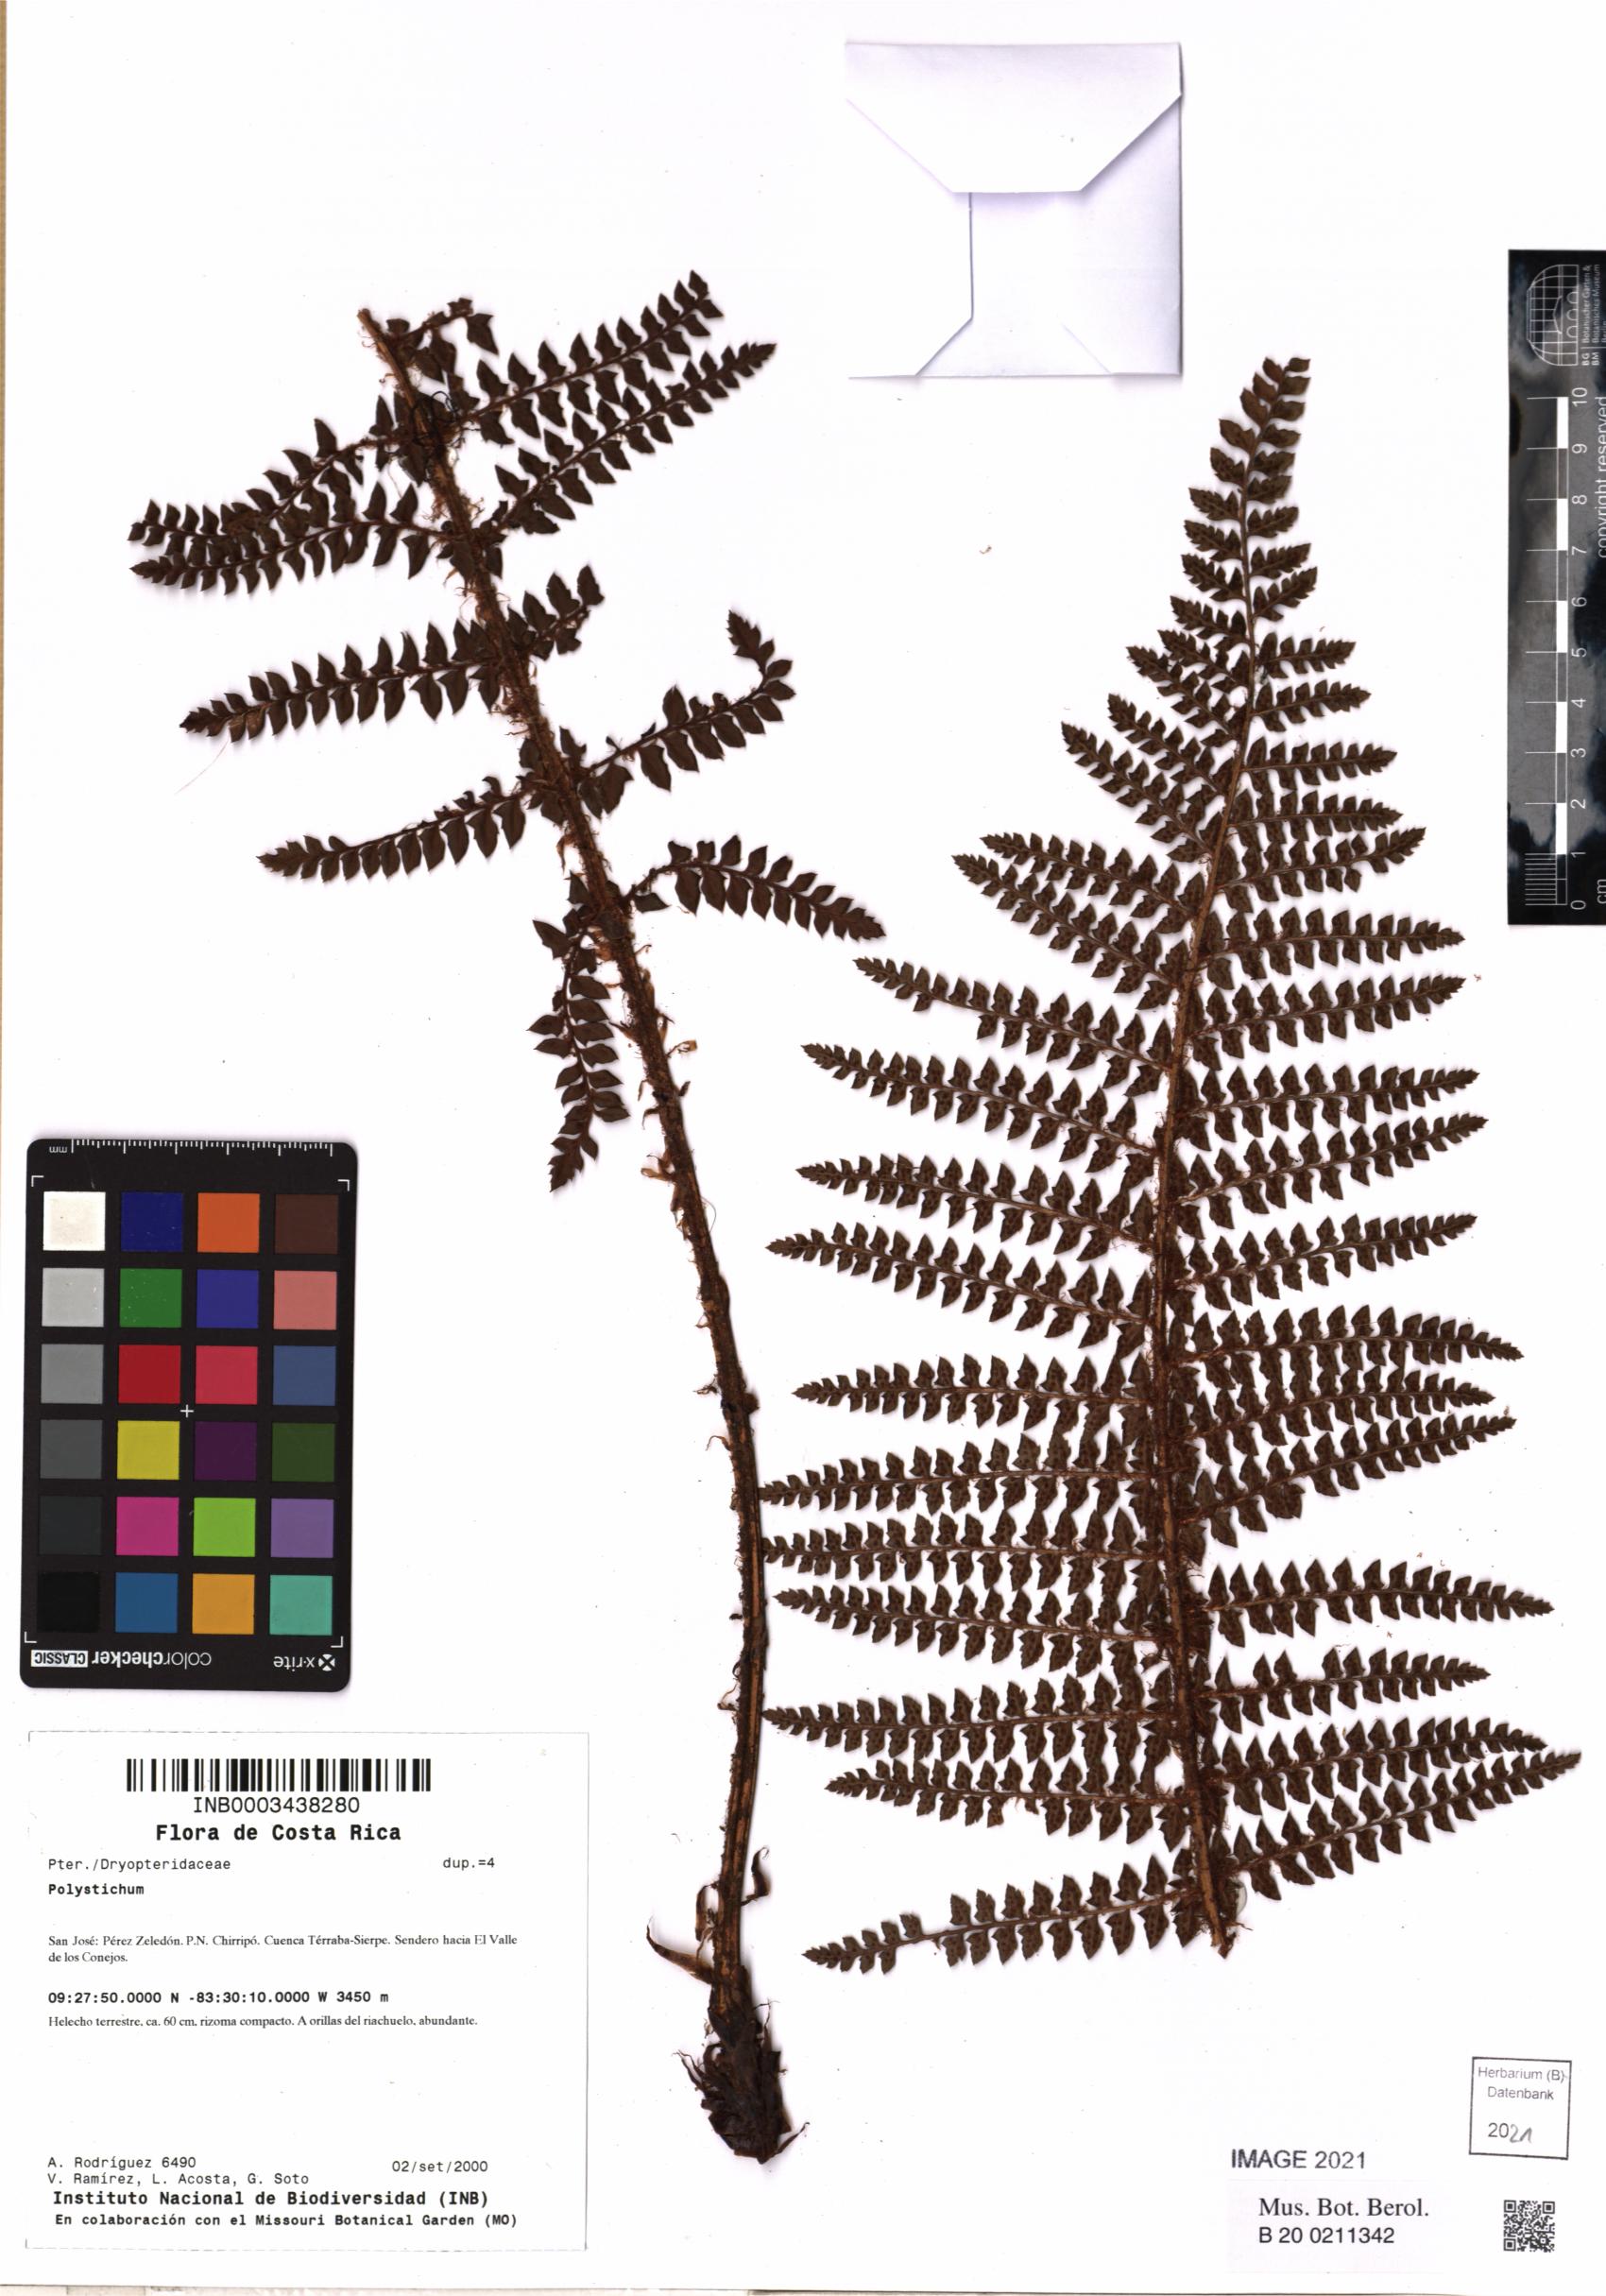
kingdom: Plantae
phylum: Tracheophyta
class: Polypodiopsida
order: Polypodiales
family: Dryopteridaceae
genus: Polystichum
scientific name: Polystichum
